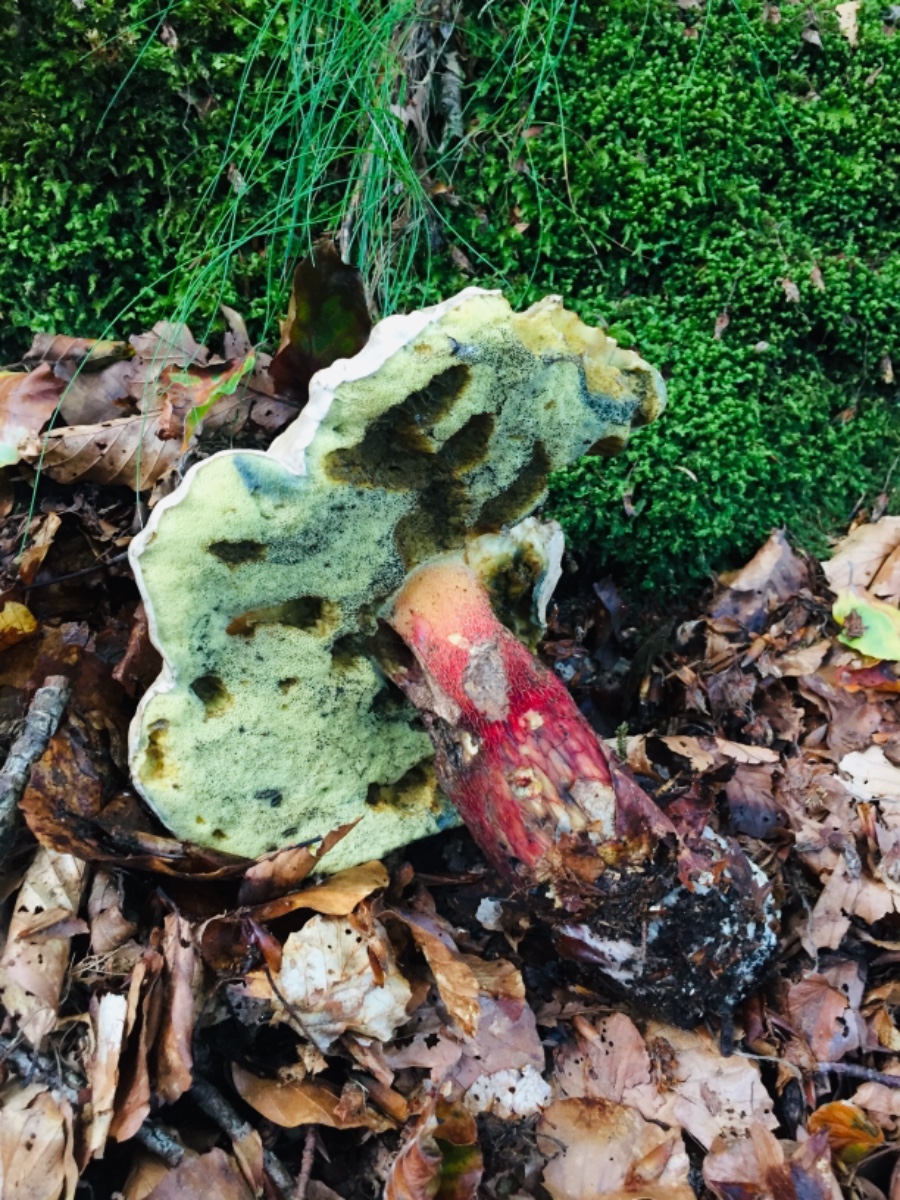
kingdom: Fungi
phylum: Basidiomycota
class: Agaricomycetes
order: Boletales
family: Boletaceae
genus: Caloboletus
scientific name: Caloboletus calopus
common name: skønfodet rørhat
